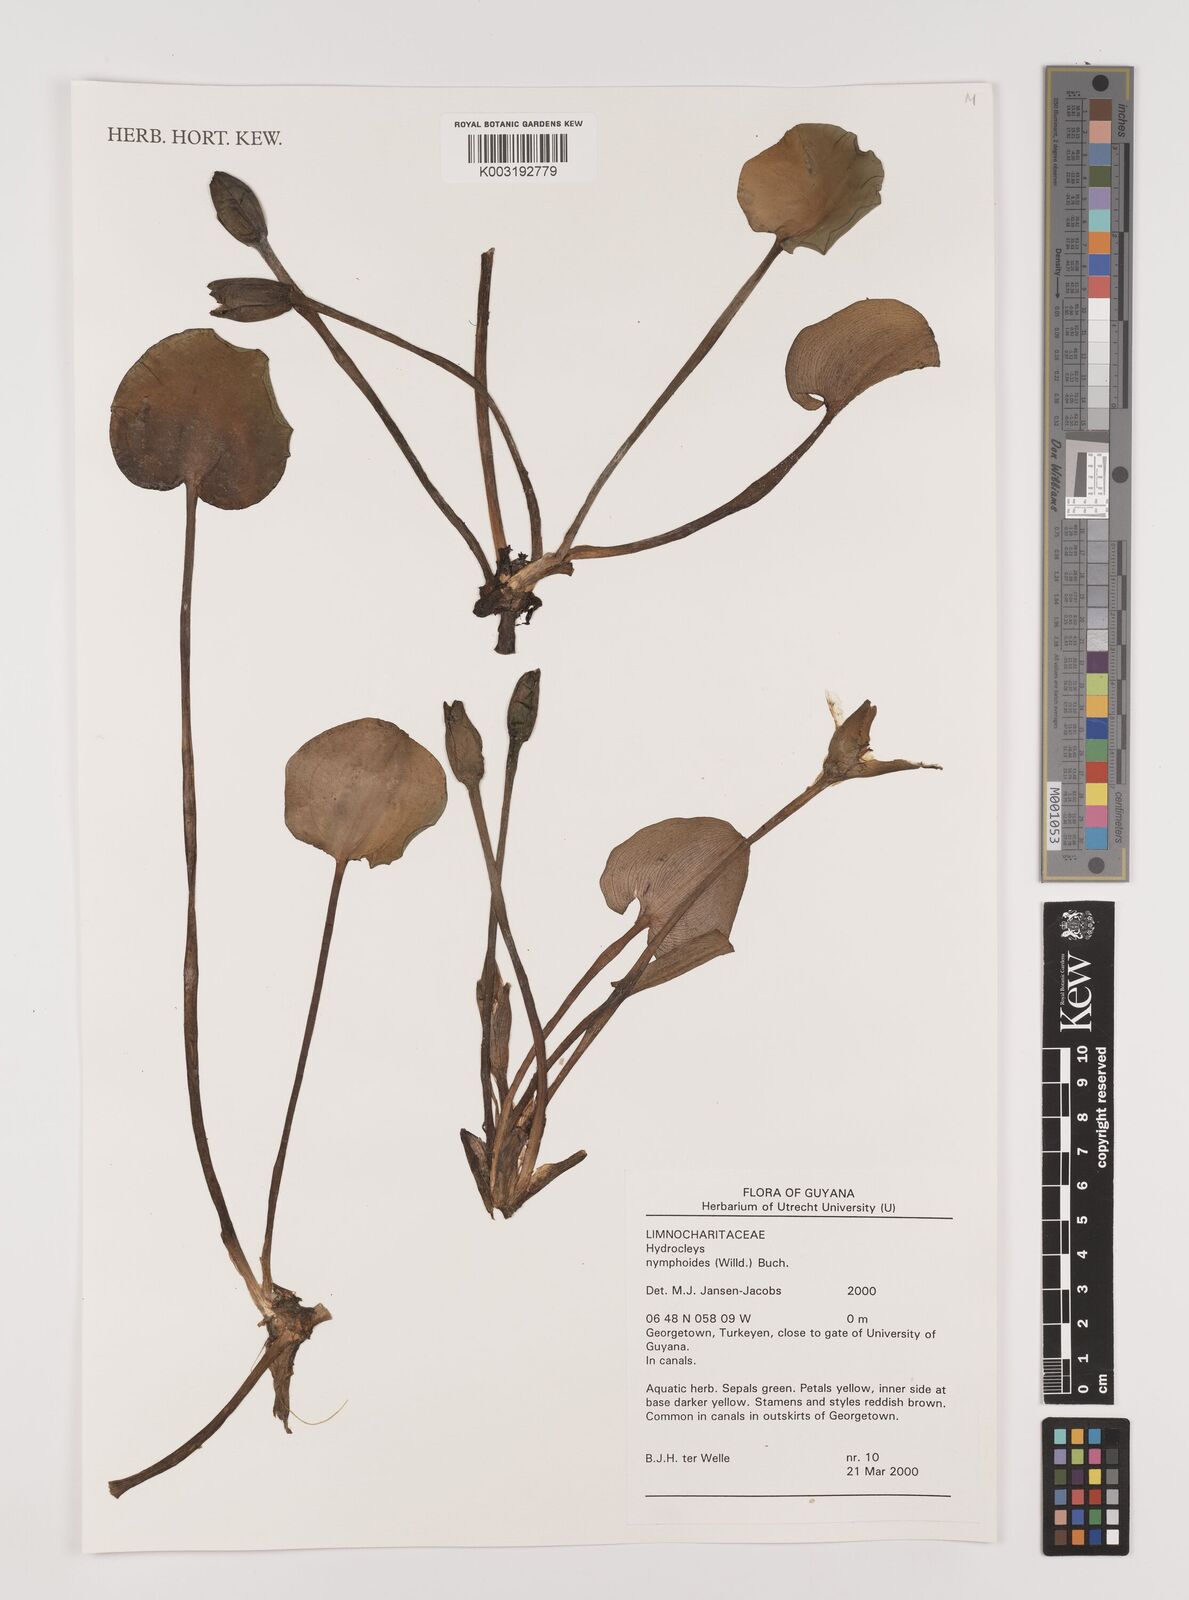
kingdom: Plantae
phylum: Tracheophyta
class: Liliopsida
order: Alismatales
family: Alismataceae
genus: Hydrocleys
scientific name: Hydrocleys nymphoides
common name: Water-poppy
